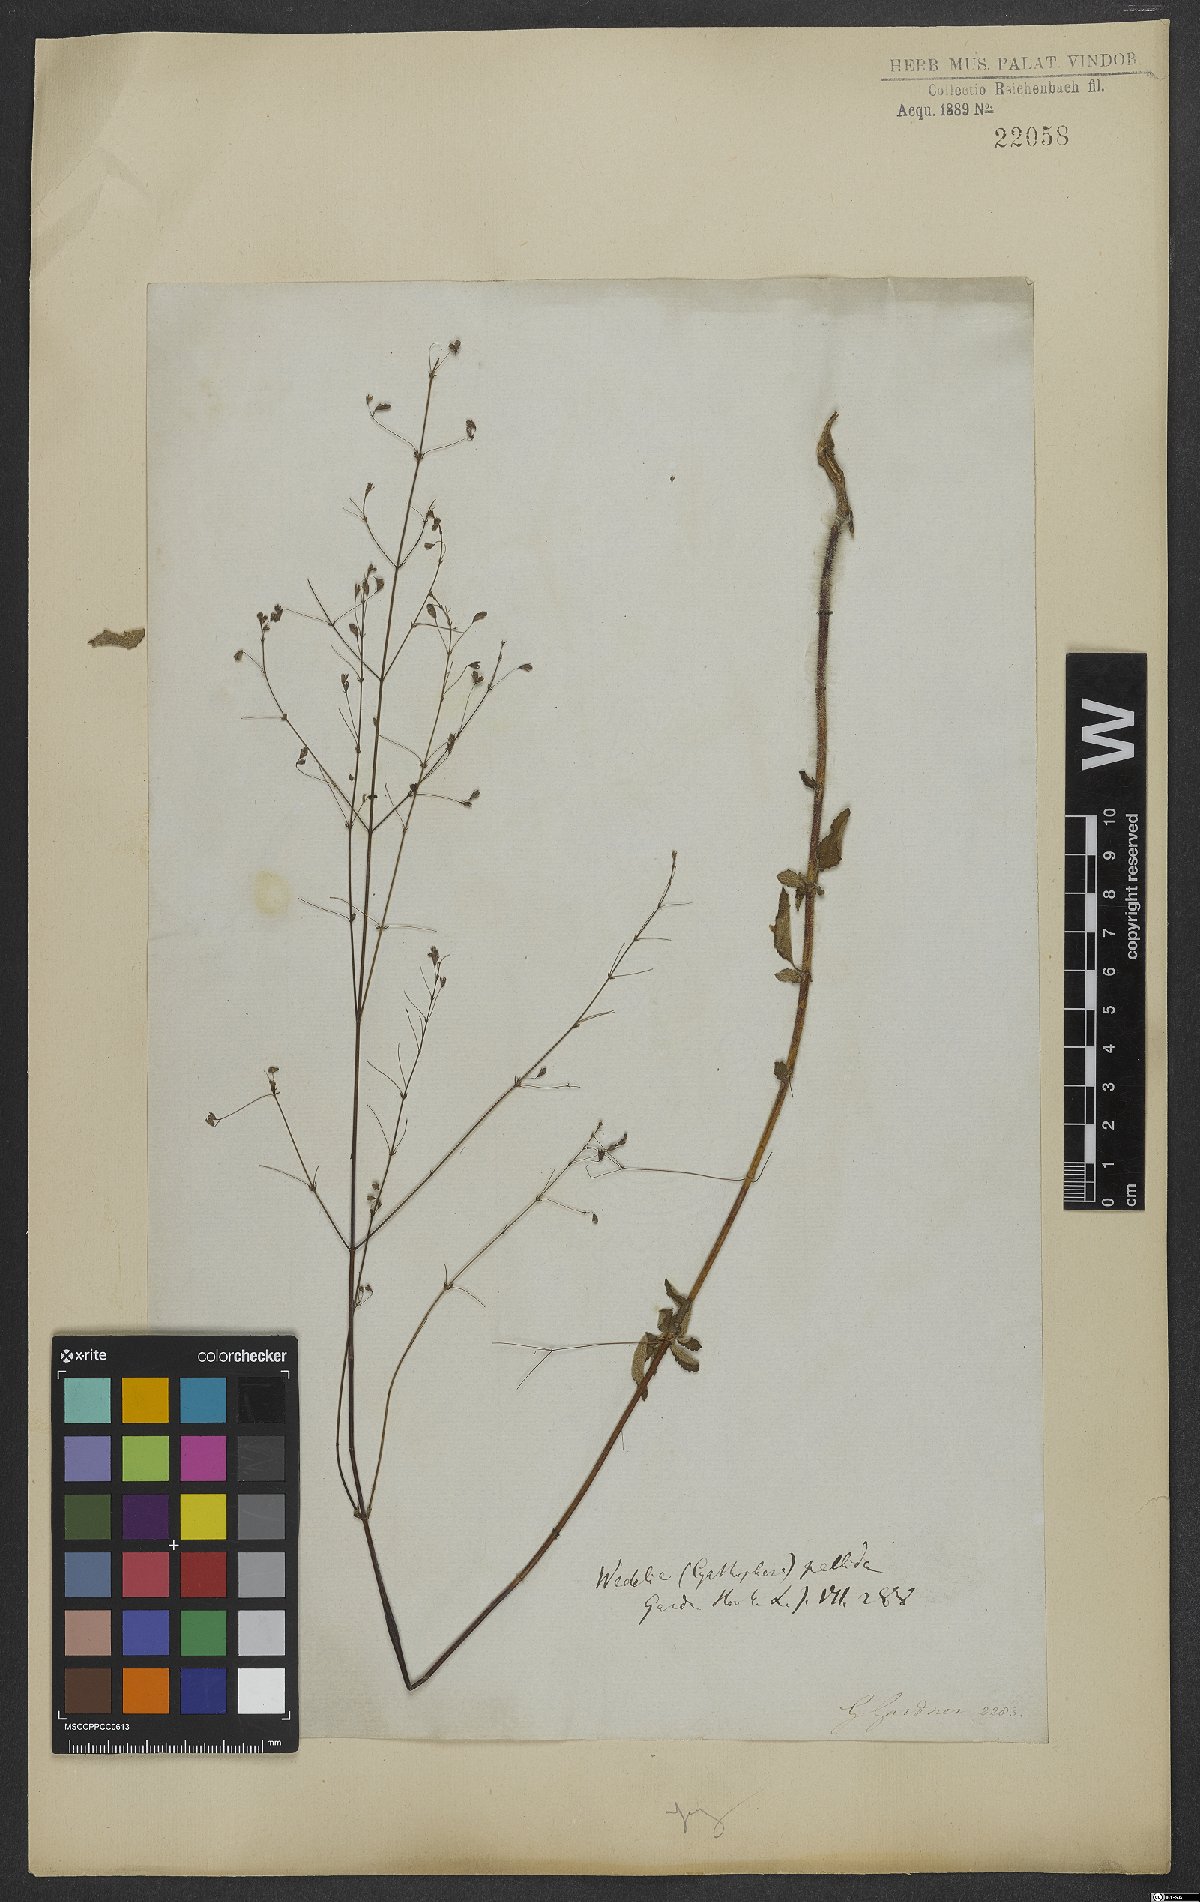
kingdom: Plantae
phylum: Tracheophyta
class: Magnoliopsida
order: Asterales
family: Asteraceae
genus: Wedelia
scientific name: Wedelia macrodonta
